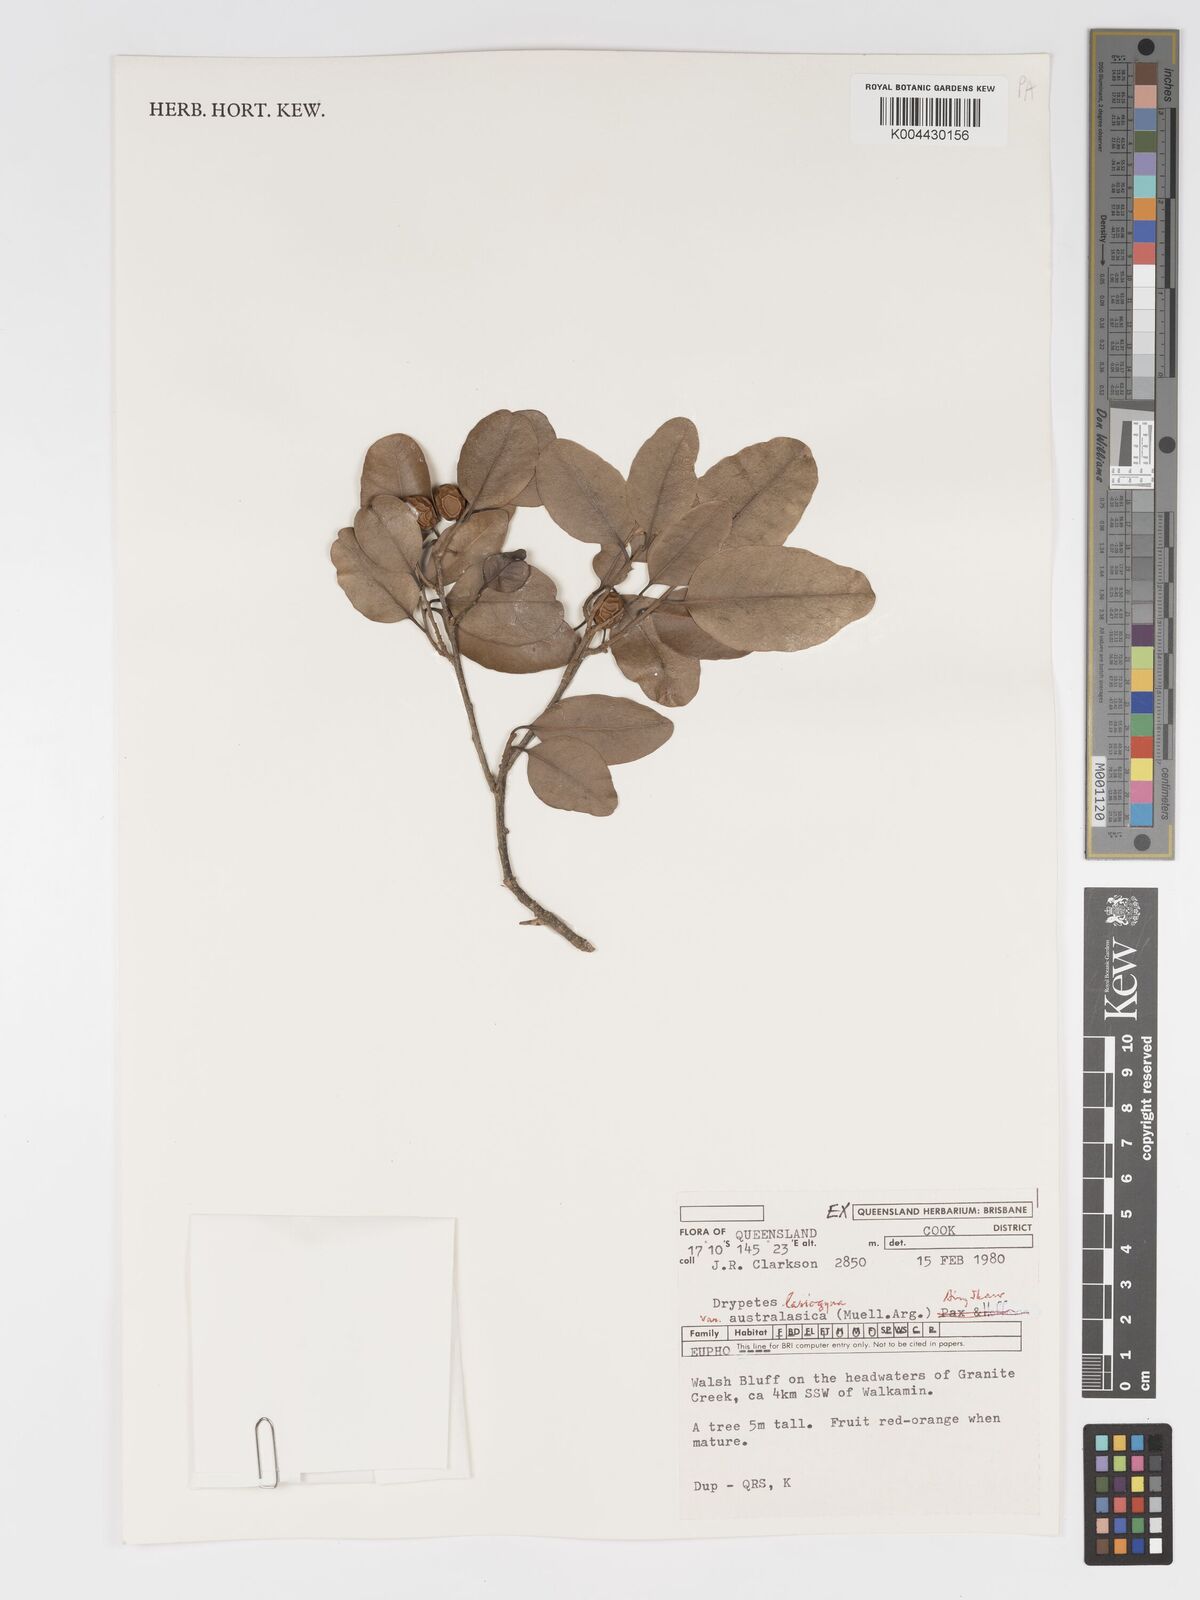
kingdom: Plantae
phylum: Tracheophyta
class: Magnoliopsida
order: Malpighiales
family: Putranjivaceae
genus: Drypetes
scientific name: Drypetes deplanchei
